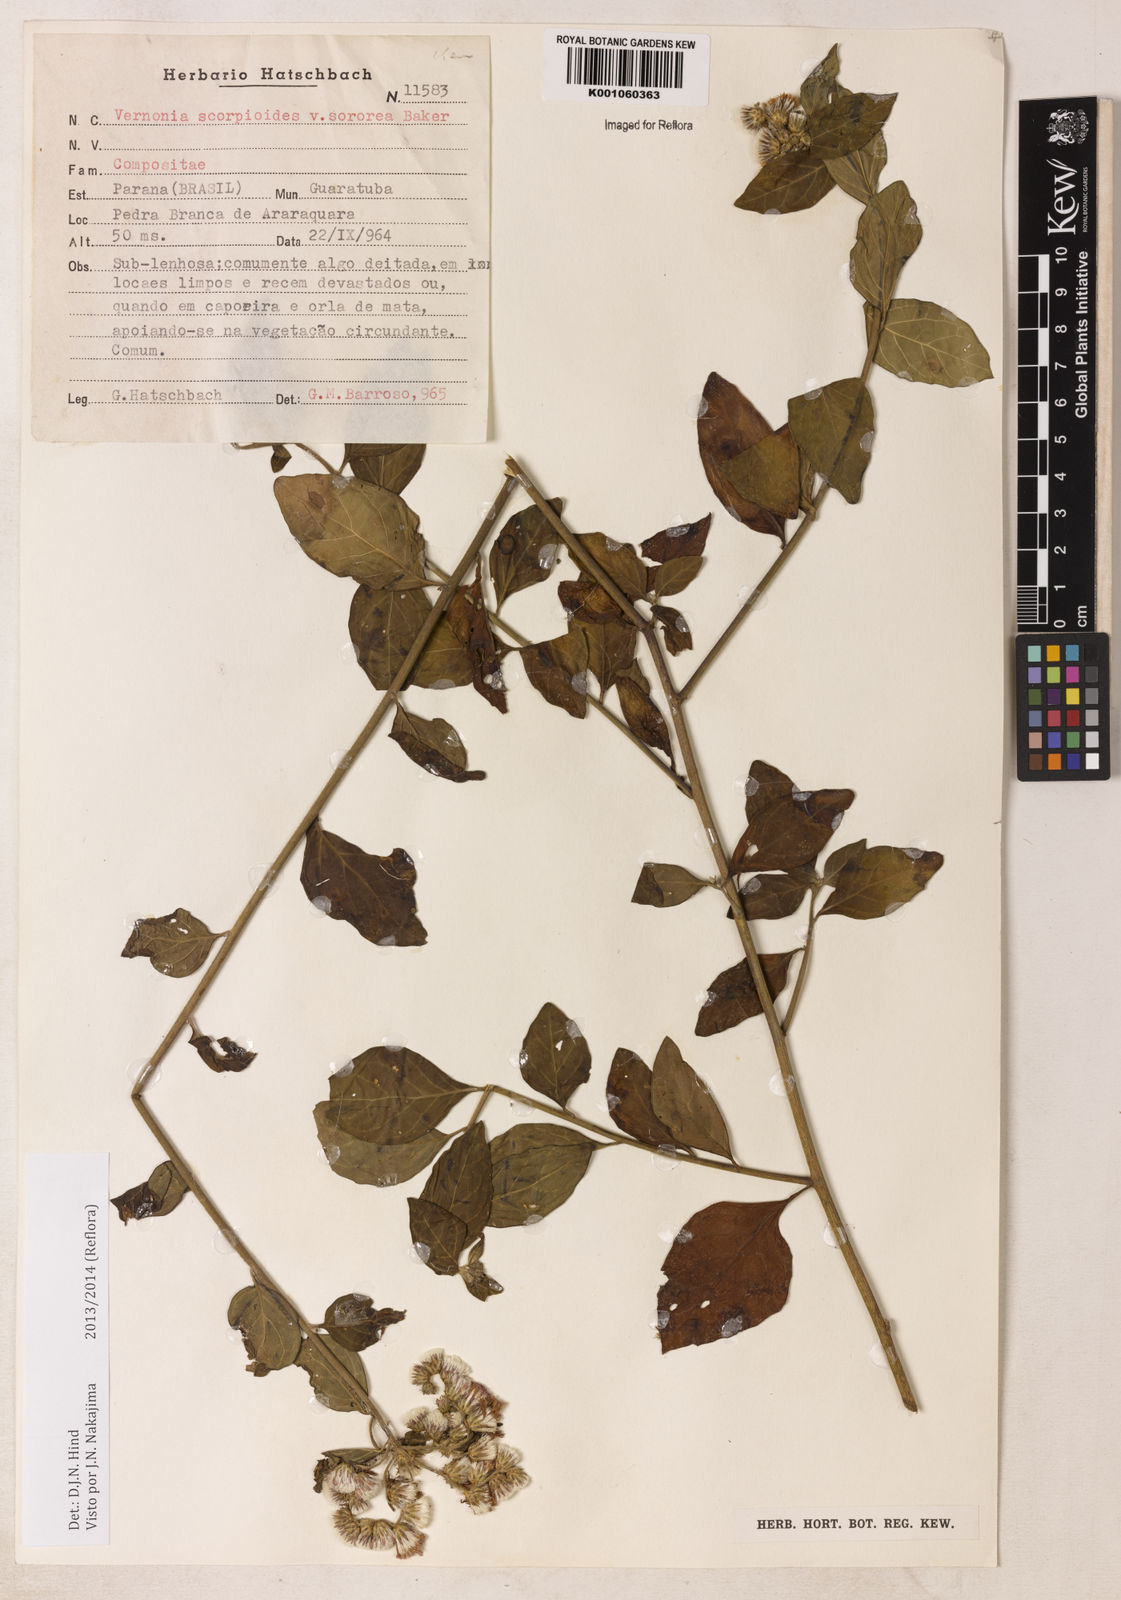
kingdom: Plantae
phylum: Tracheophyta
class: Magnoliopsida
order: Asterales
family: Asteraceae
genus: Cyrtocymura
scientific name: Cyrtocymura scorpioides
